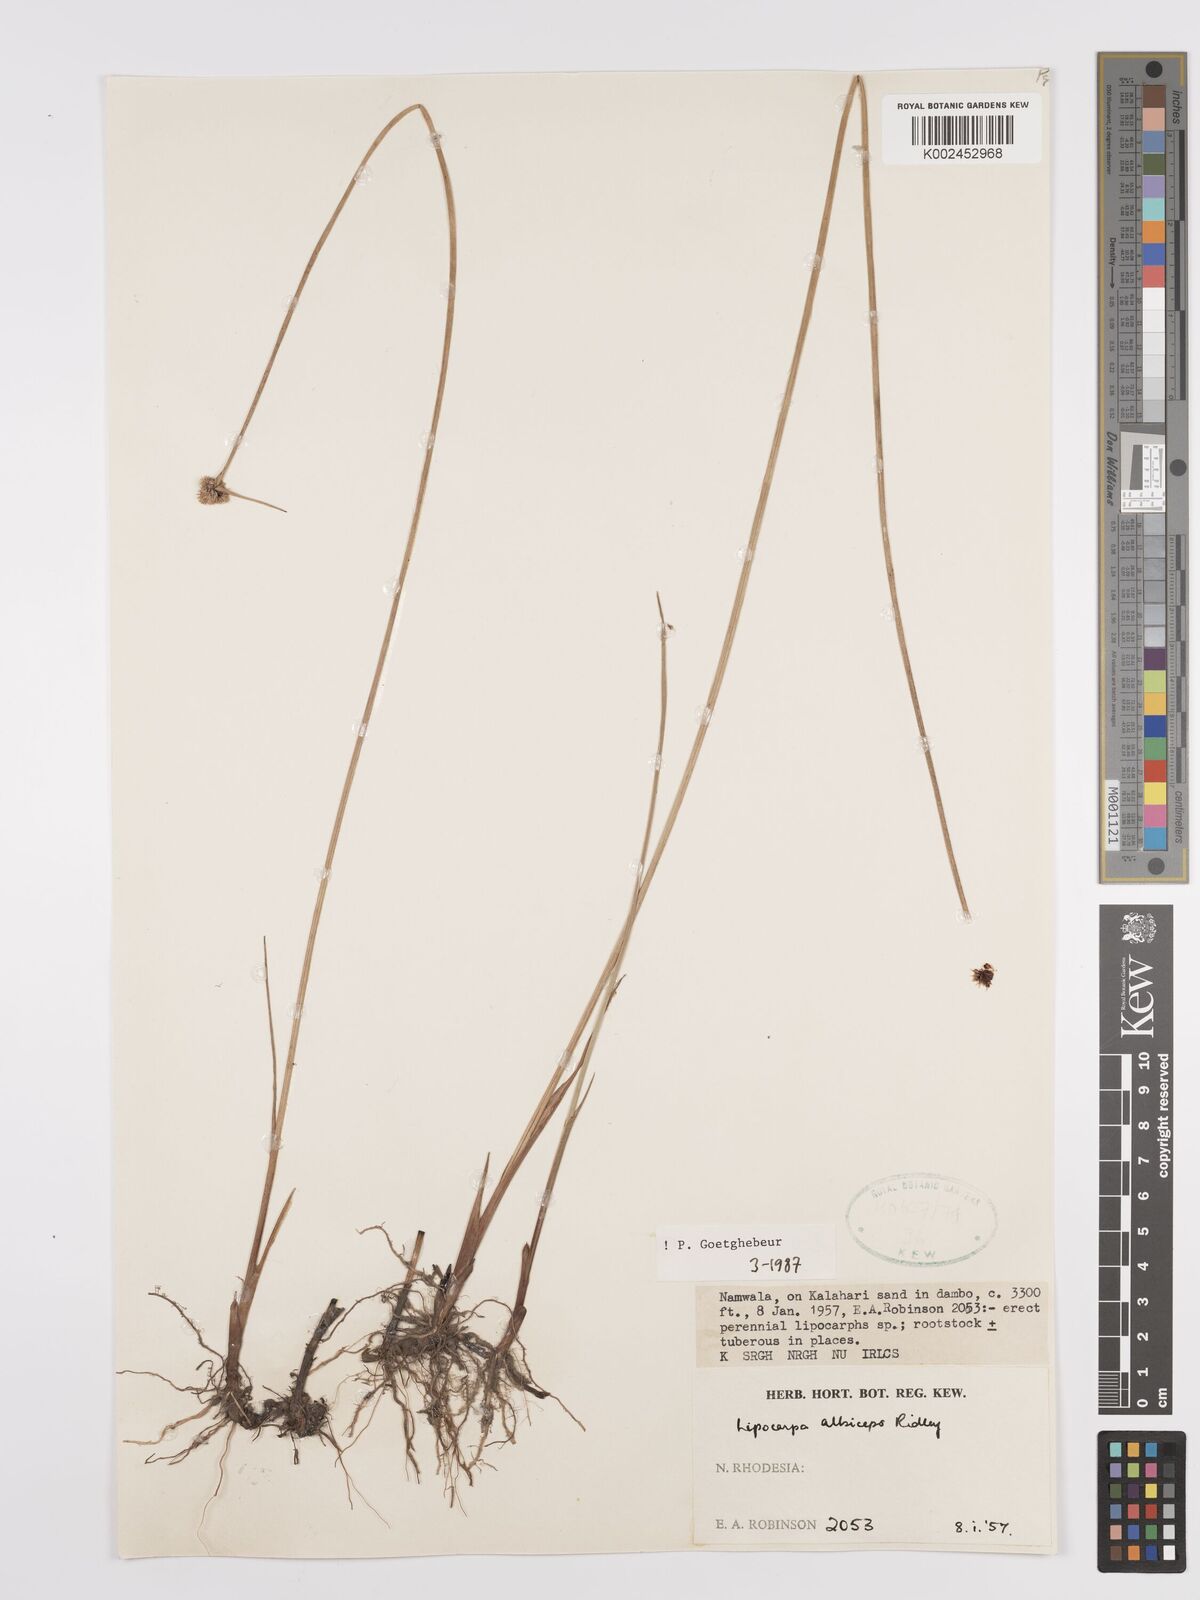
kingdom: Plantae
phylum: Tracheophyta
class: Liliopsida
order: Poales
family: Cyperaceae
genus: Cyperus
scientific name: Cyperus albiceps
